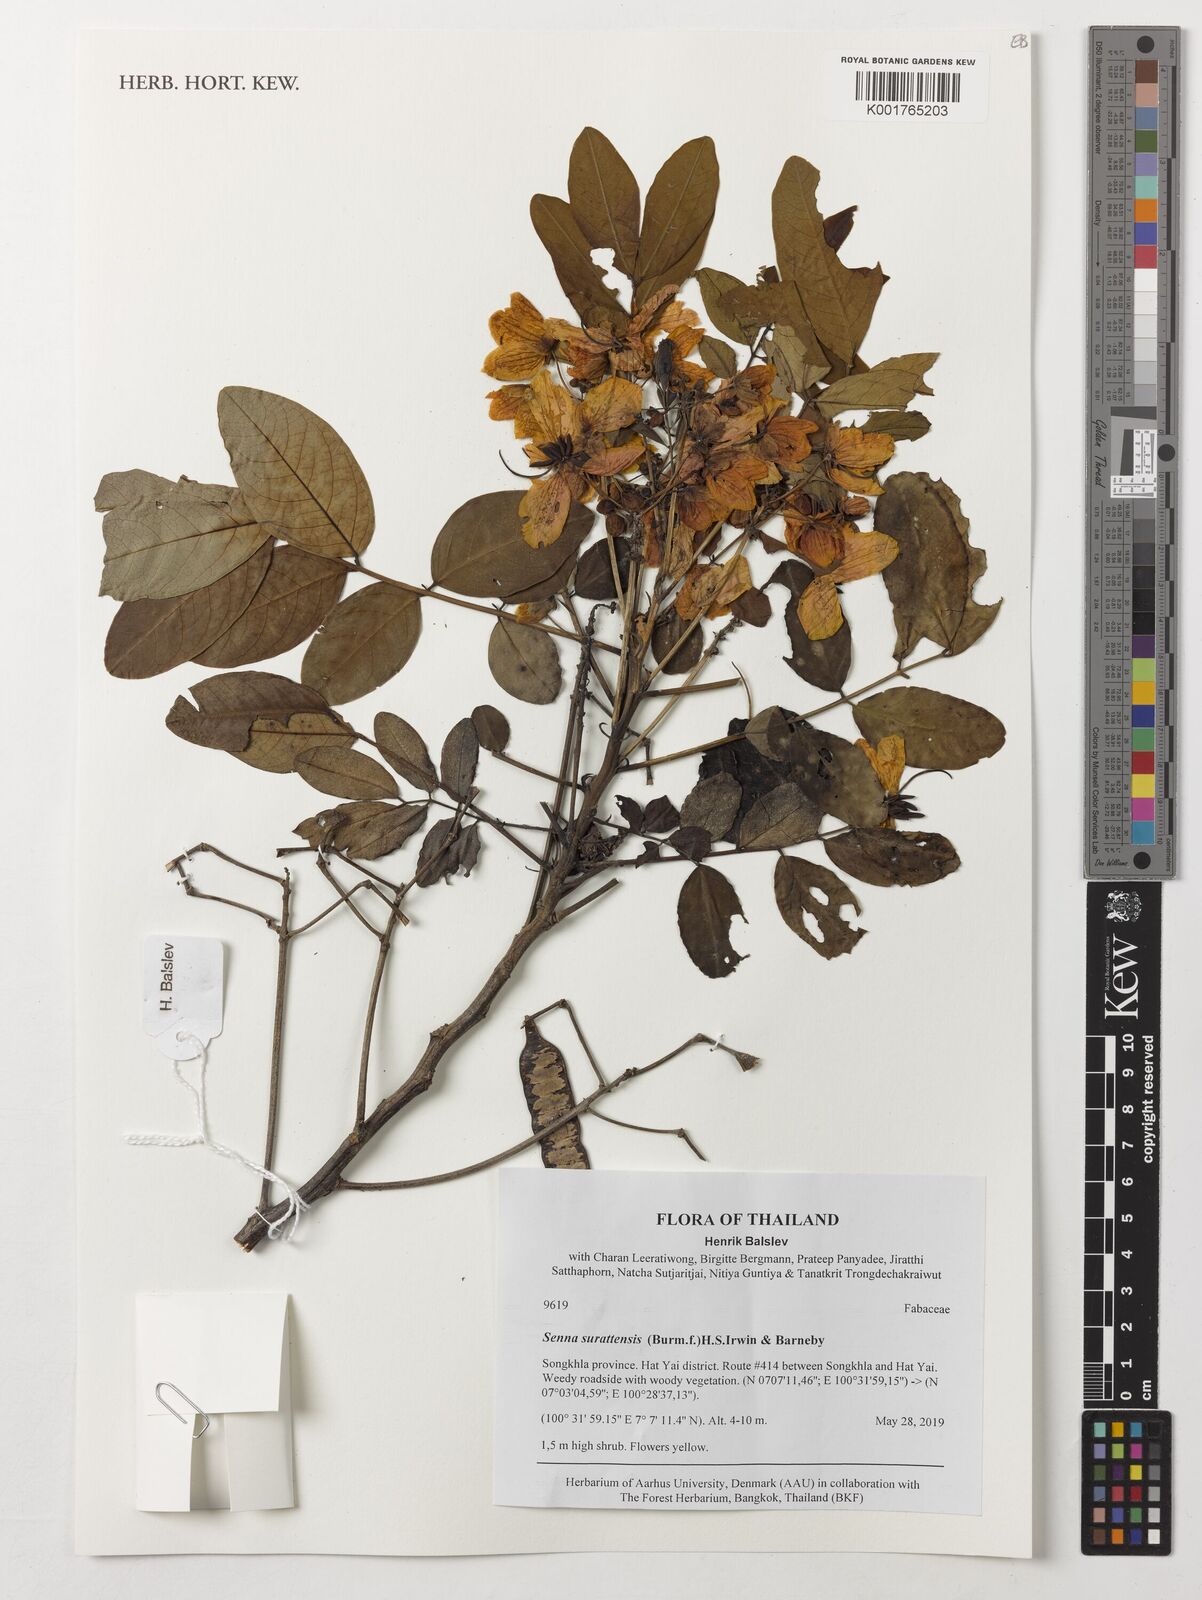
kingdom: Plantae
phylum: Tracheophyta
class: Magnoliopsida
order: Fabales
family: Fabaceae
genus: Senna
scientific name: Senna surattensis
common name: Glossy shower
